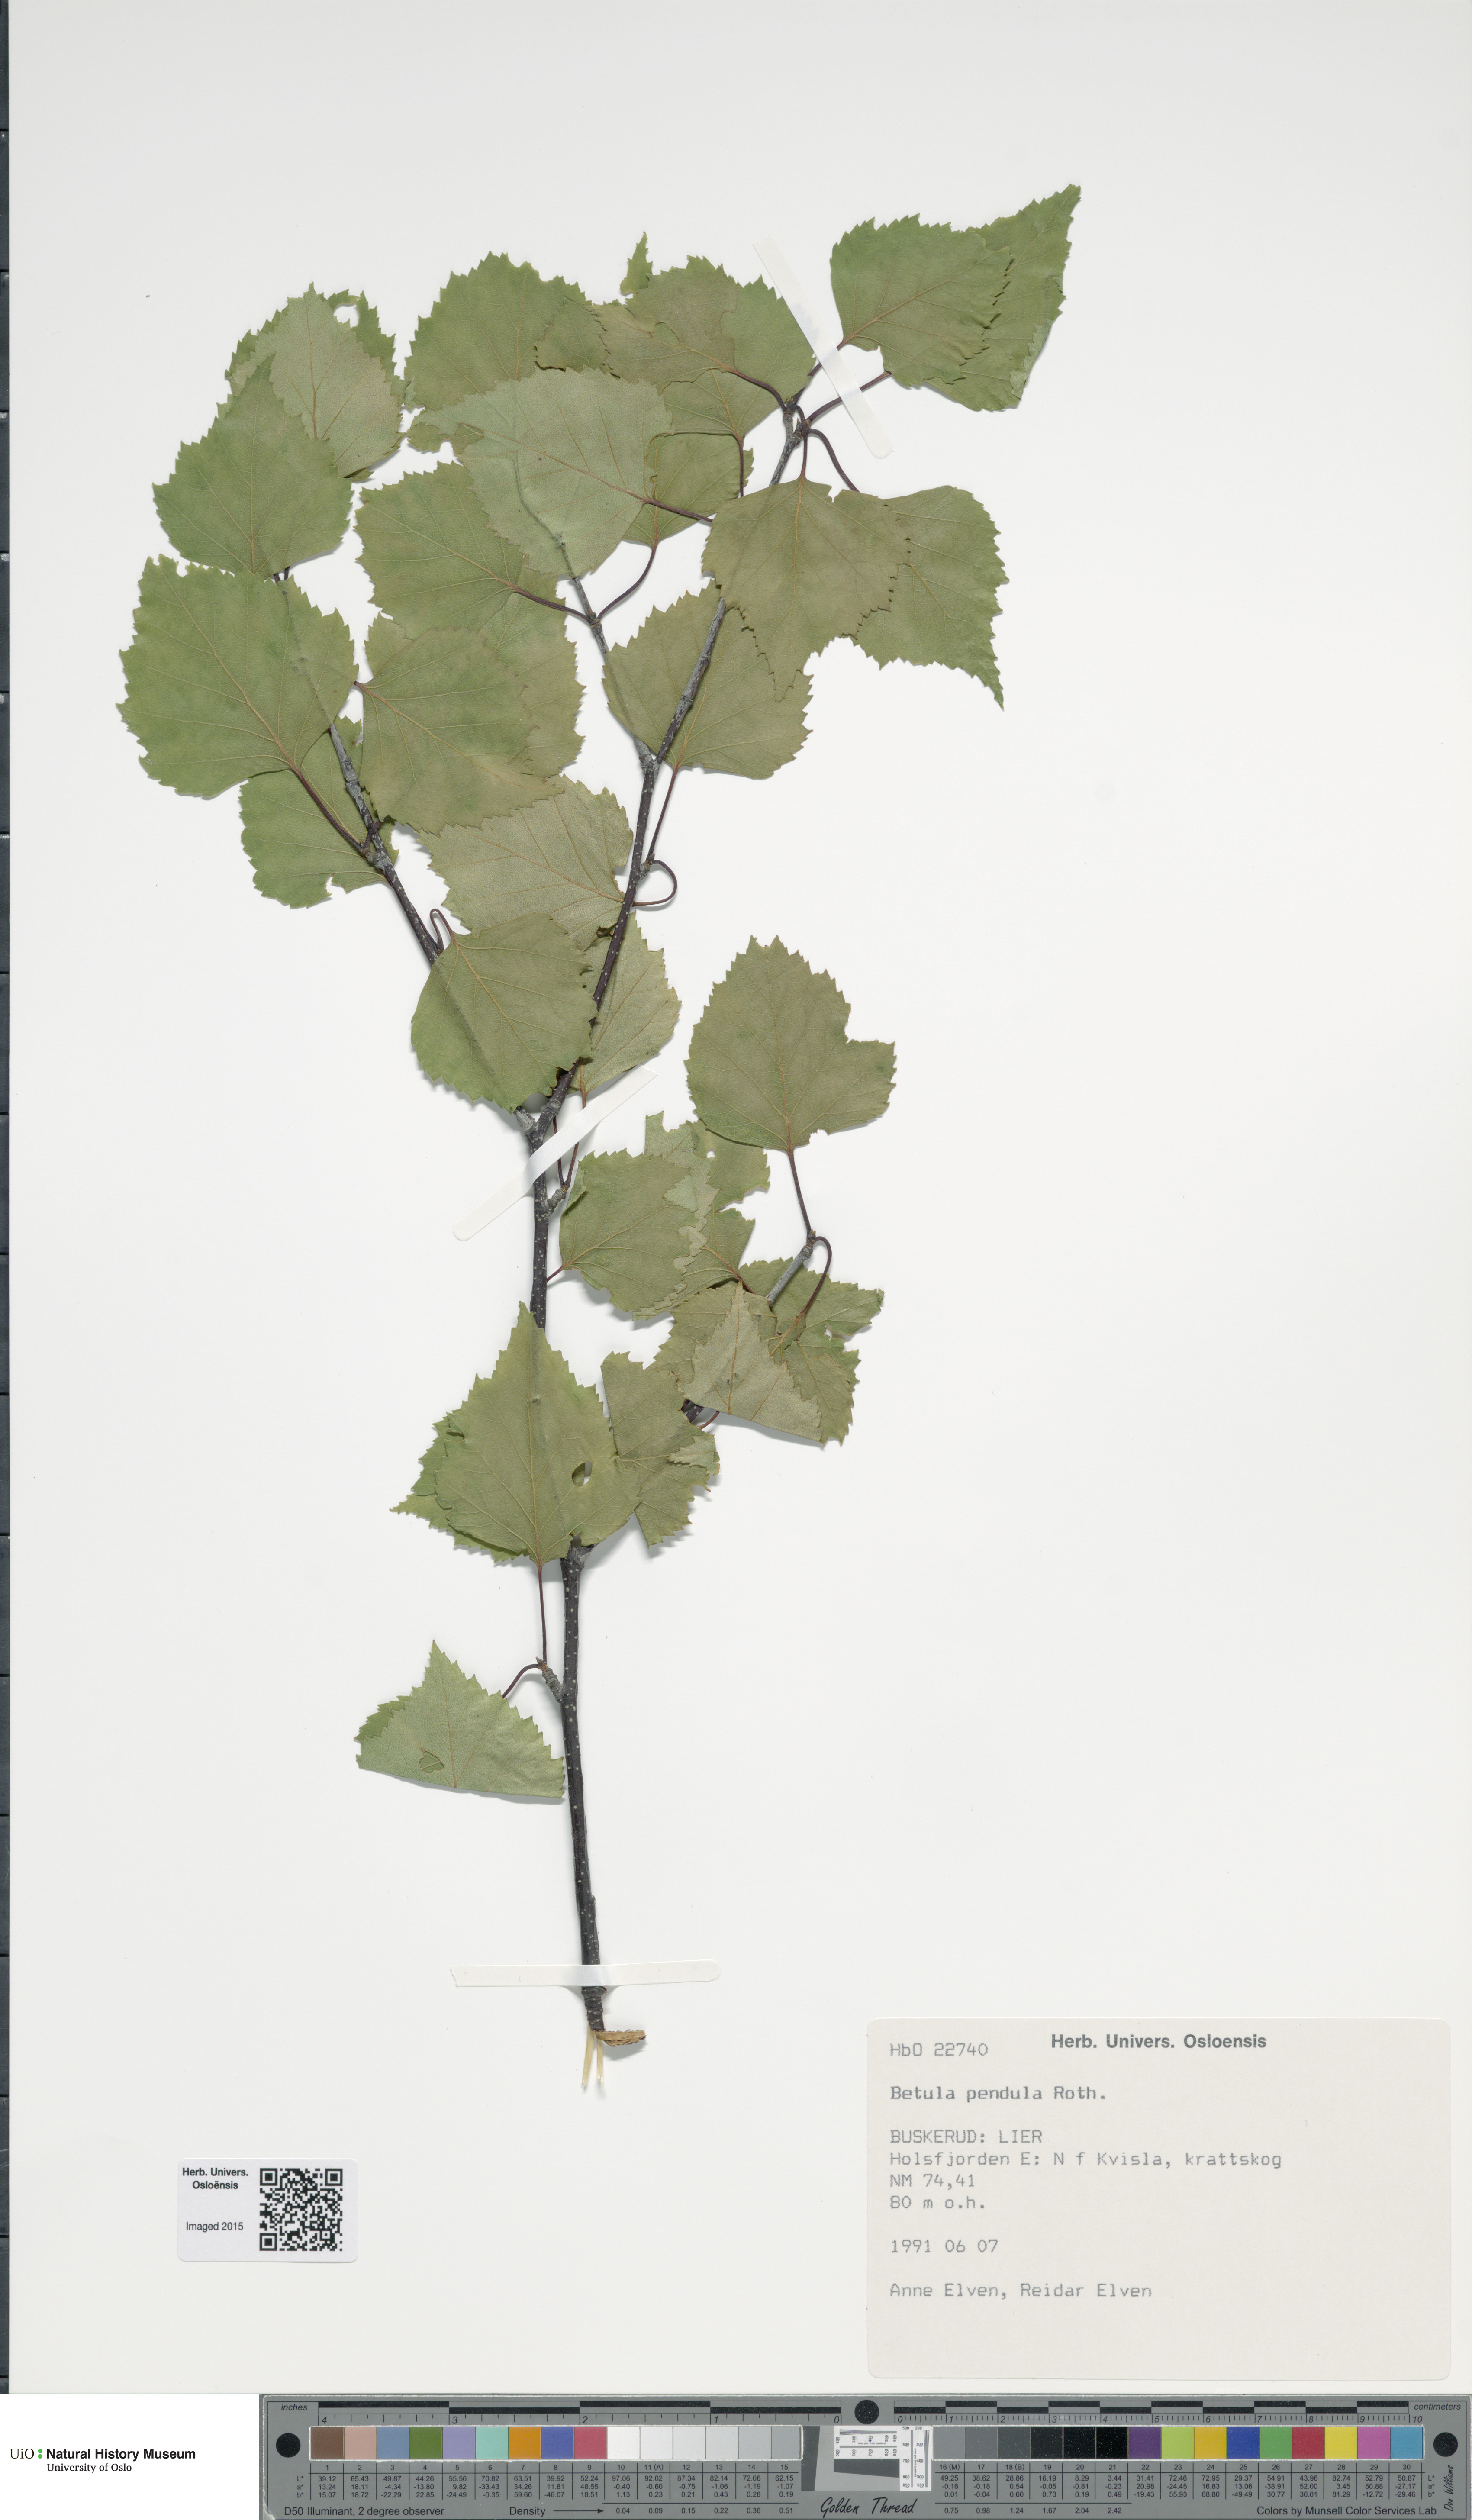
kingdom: Plantae
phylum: Tracheophyta
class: Magnoliopsida
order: Fagales
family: Betulaceae
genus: Betula
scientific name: Betula pendula
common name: Silver birch
